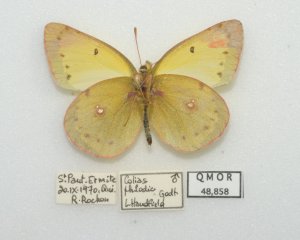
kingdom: Animalia
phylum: Arthropoda
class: Insecta
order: Lepidoptera
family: Pieridae
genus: Colias
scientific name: Colias philodice
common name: Clouded Sulphur
